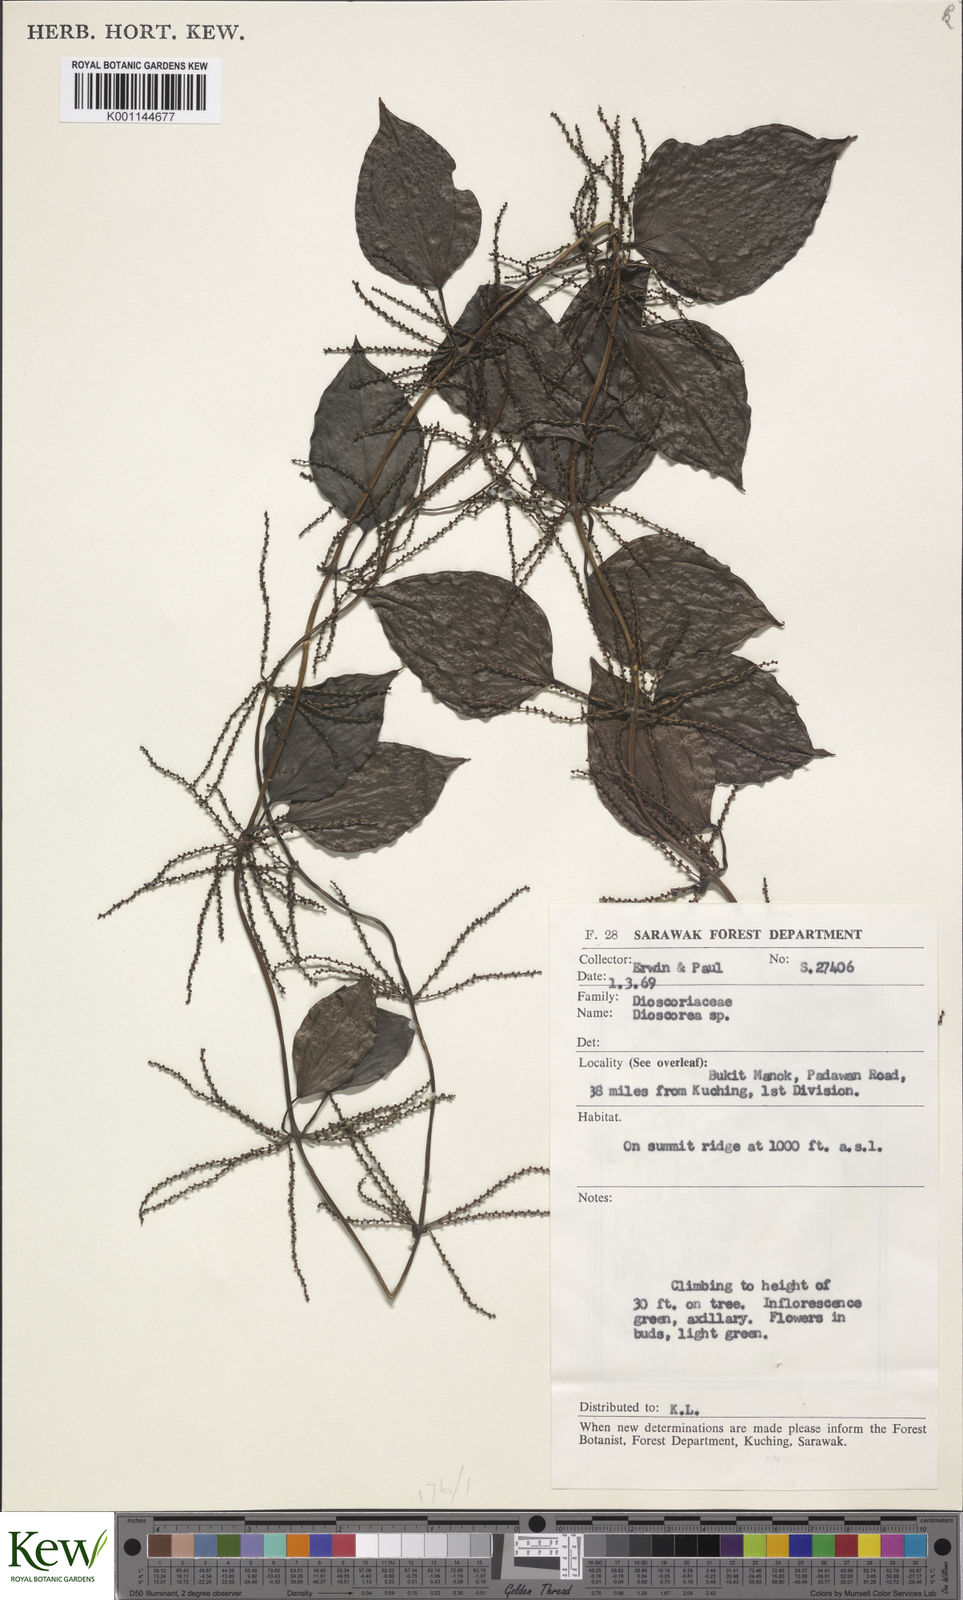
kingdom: Plantae
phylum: Tracheophyta
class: Liliopsida
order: Dioscoreales
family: Dioscoreaceae
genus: Dioscorea
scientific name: Dioscorea
